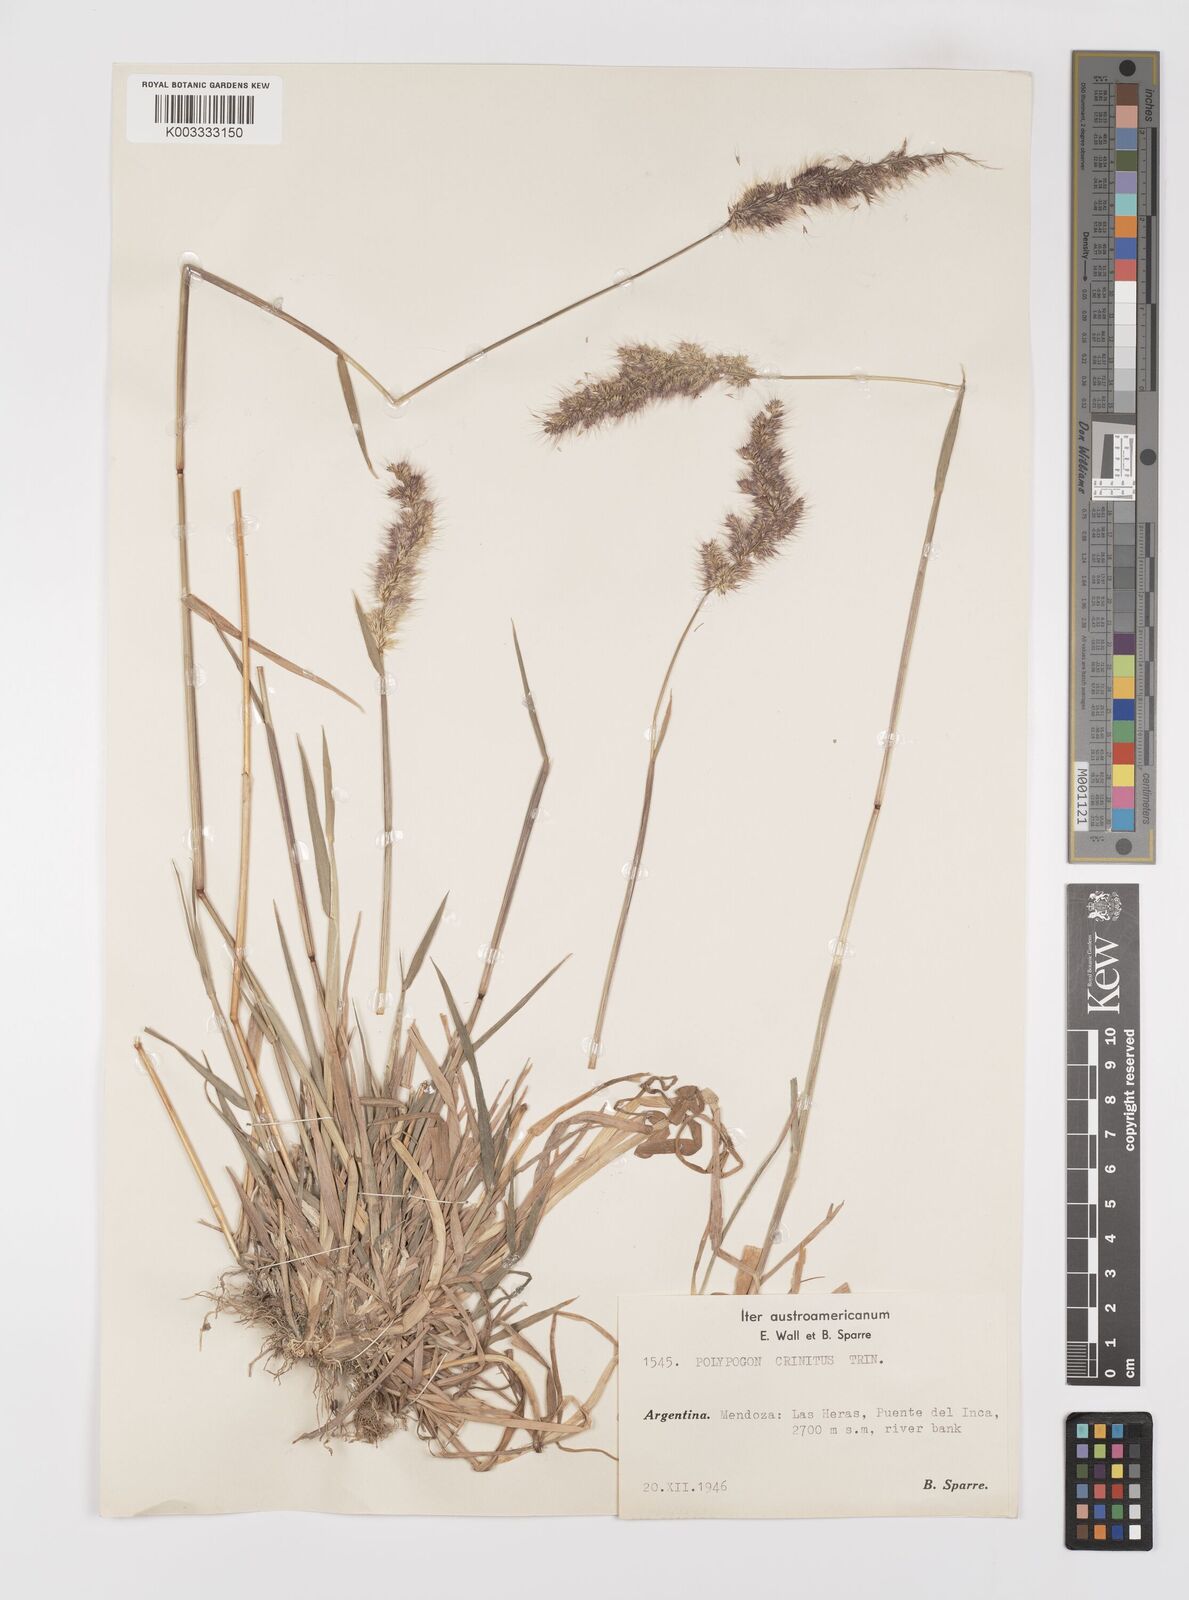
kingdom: Plantae
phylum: Tracheophyta
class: Liliopsida
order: Poales
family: Poaceae
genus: Polypogon
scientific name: Polypogon australis
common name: Chilean rabbitsfoot grass
